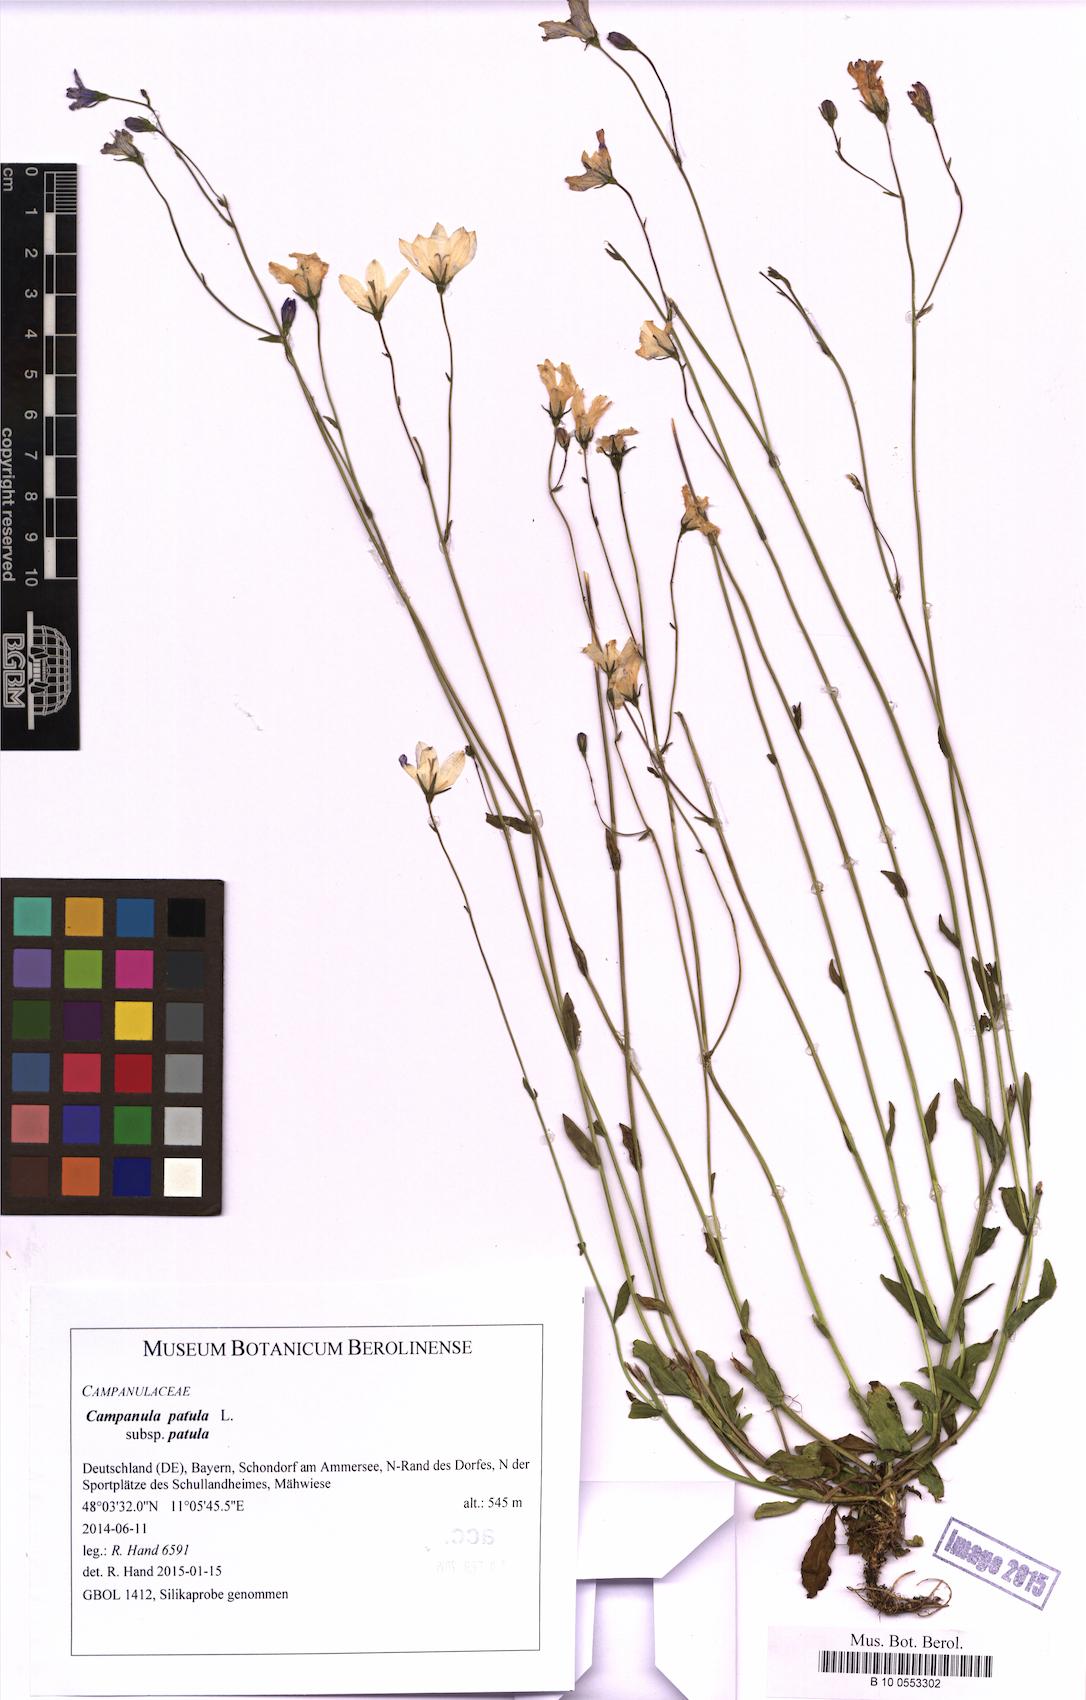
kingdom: Plantae
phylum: Tracheophyta
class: Magnoliopsida
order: Asterales
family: Campanulaceae
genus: Campanula
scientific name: Campanula patula
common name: Spreading bellflower
